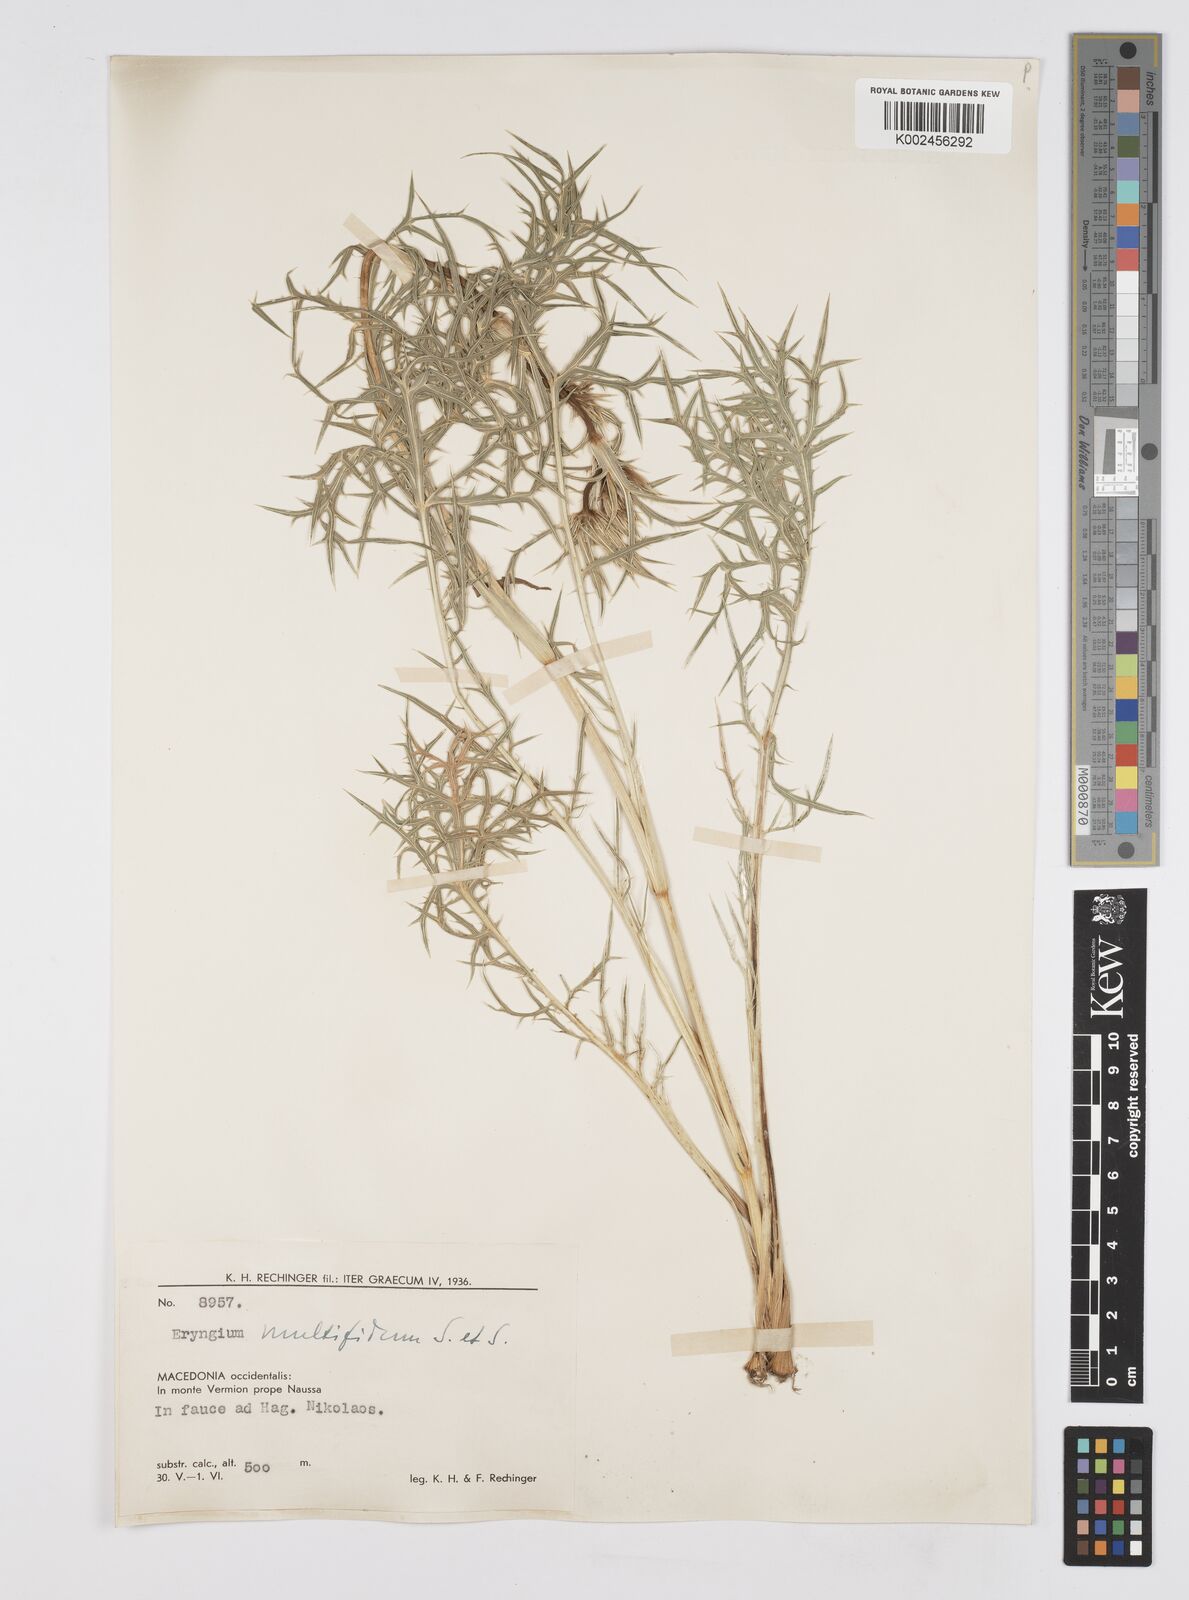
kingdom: Plantae
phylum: Tracheophyta
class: Magnoliopsida
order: Apiales
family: Apiaceae
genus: Eryngium
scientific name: Eryngium amethystinum
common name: Amethyst eryngo
